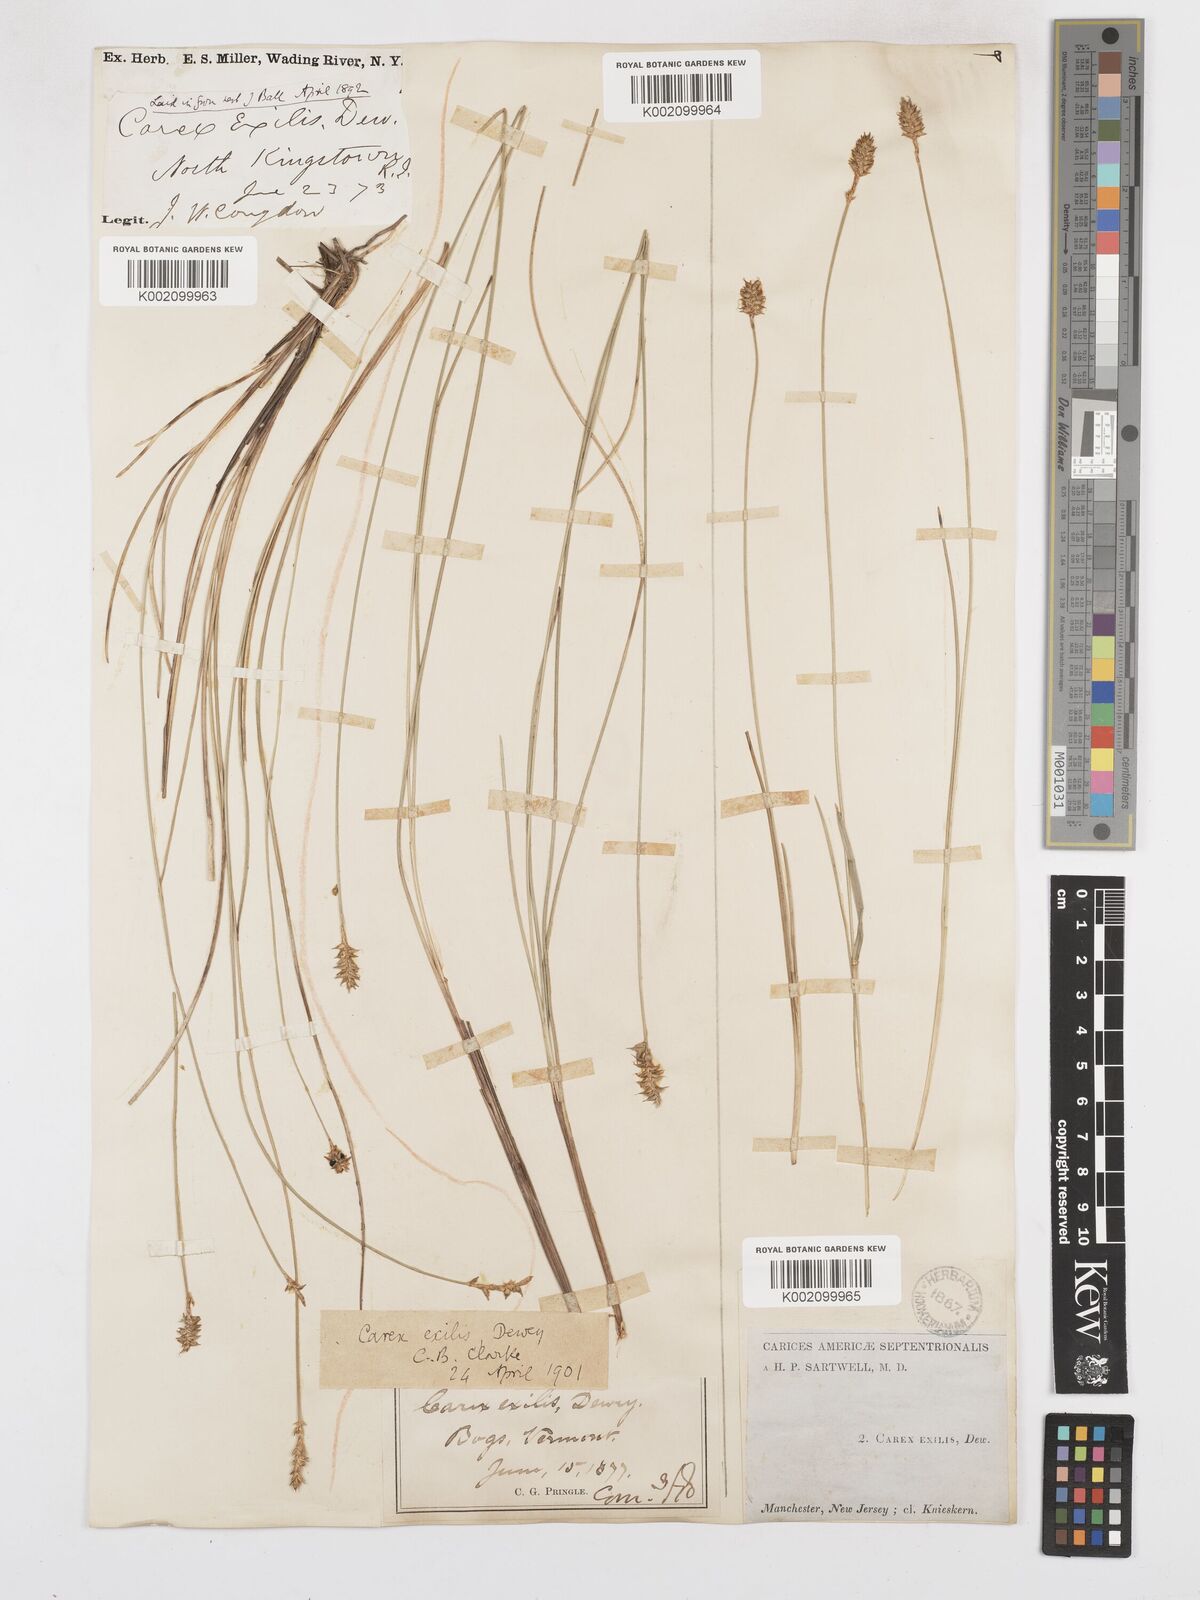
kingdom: Plantae
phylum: Tracheophyta
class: Liliopsida
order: Poales
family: Cyperaceae
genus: Carex
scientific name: Carex exilis
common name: Coastal sedge
